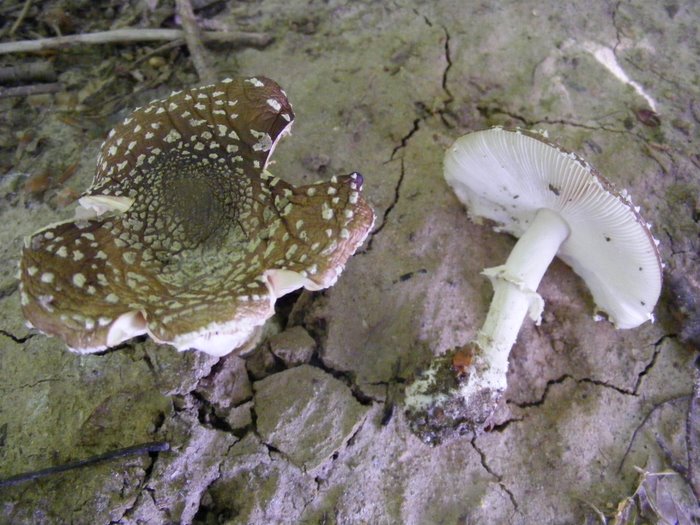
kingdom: Fungi
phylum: Basidiomycota
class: Agaricomycetes
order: Agaricales
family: Amanitaceae
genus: Amanita
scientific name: Amanita pantherina
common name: panter-fluesvamp
